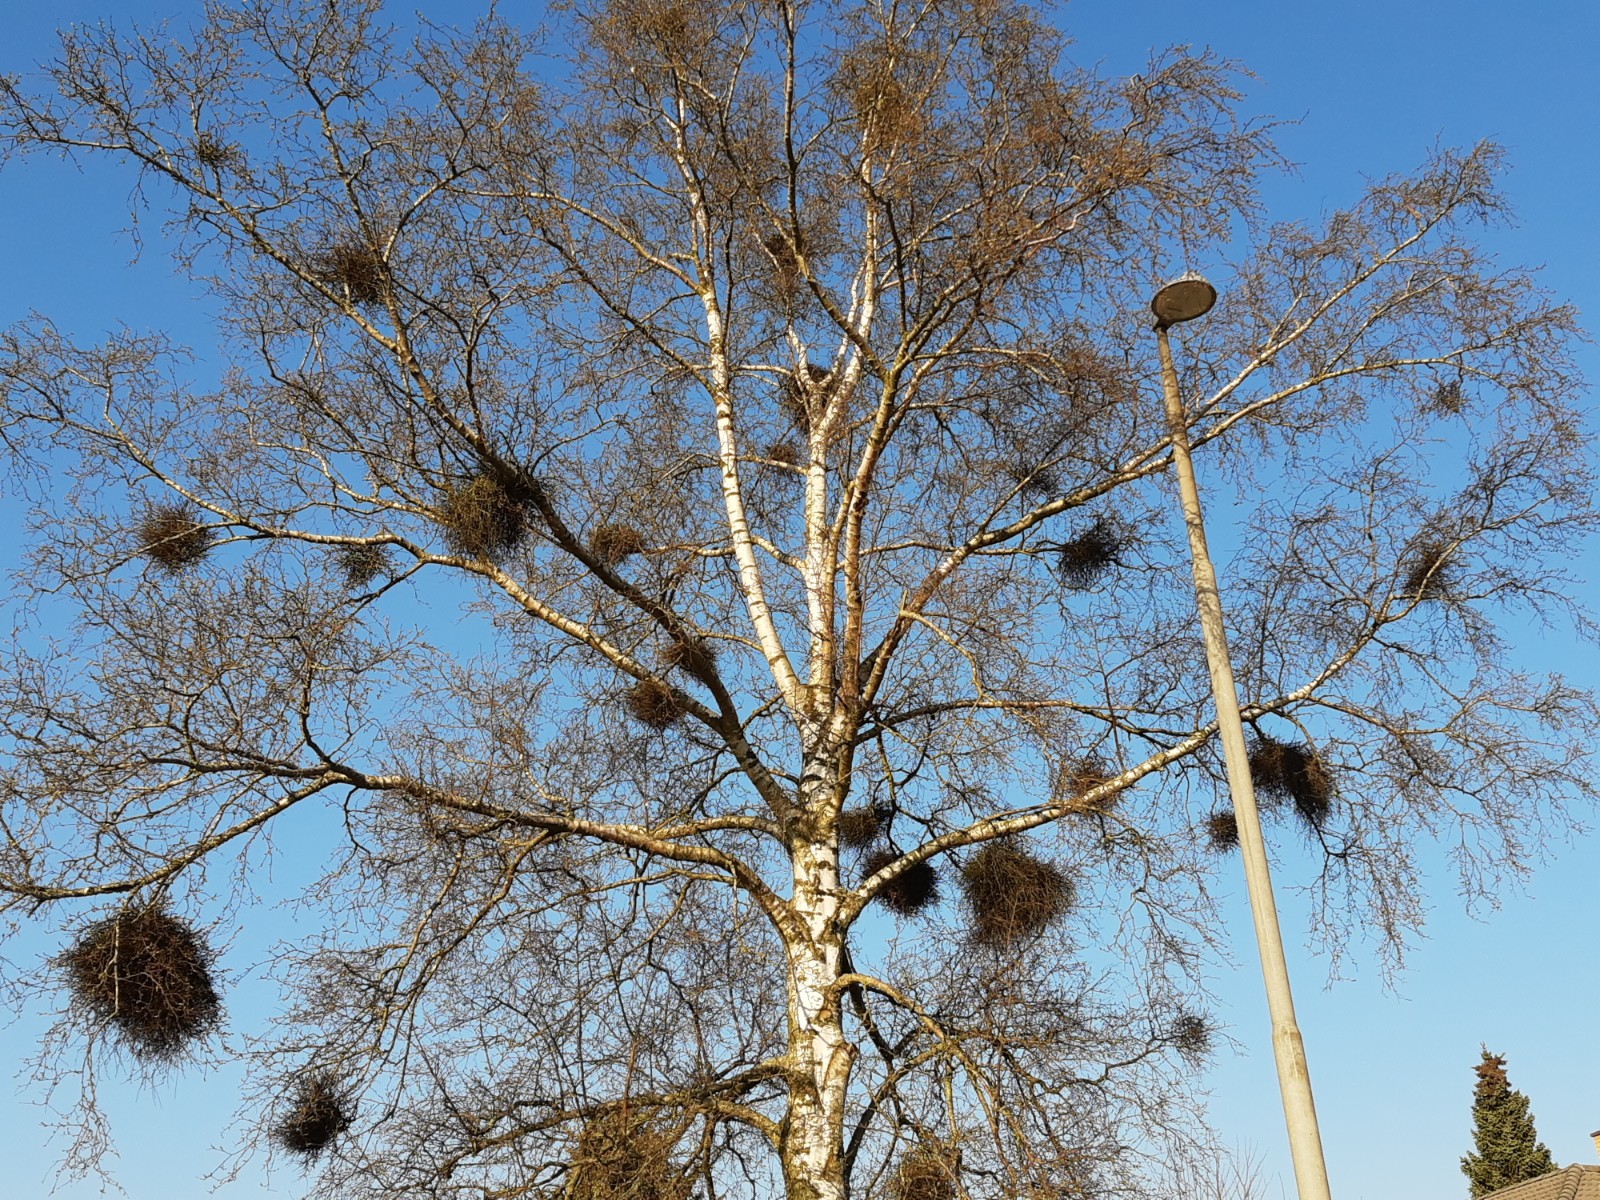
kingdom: Fungi
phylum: Ascomycota
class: Taphrinomycetes
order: Taphrinales
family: Taphrinaceae
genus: Taphrina
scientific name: Taphrina betulina
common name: hekse-sækdug
